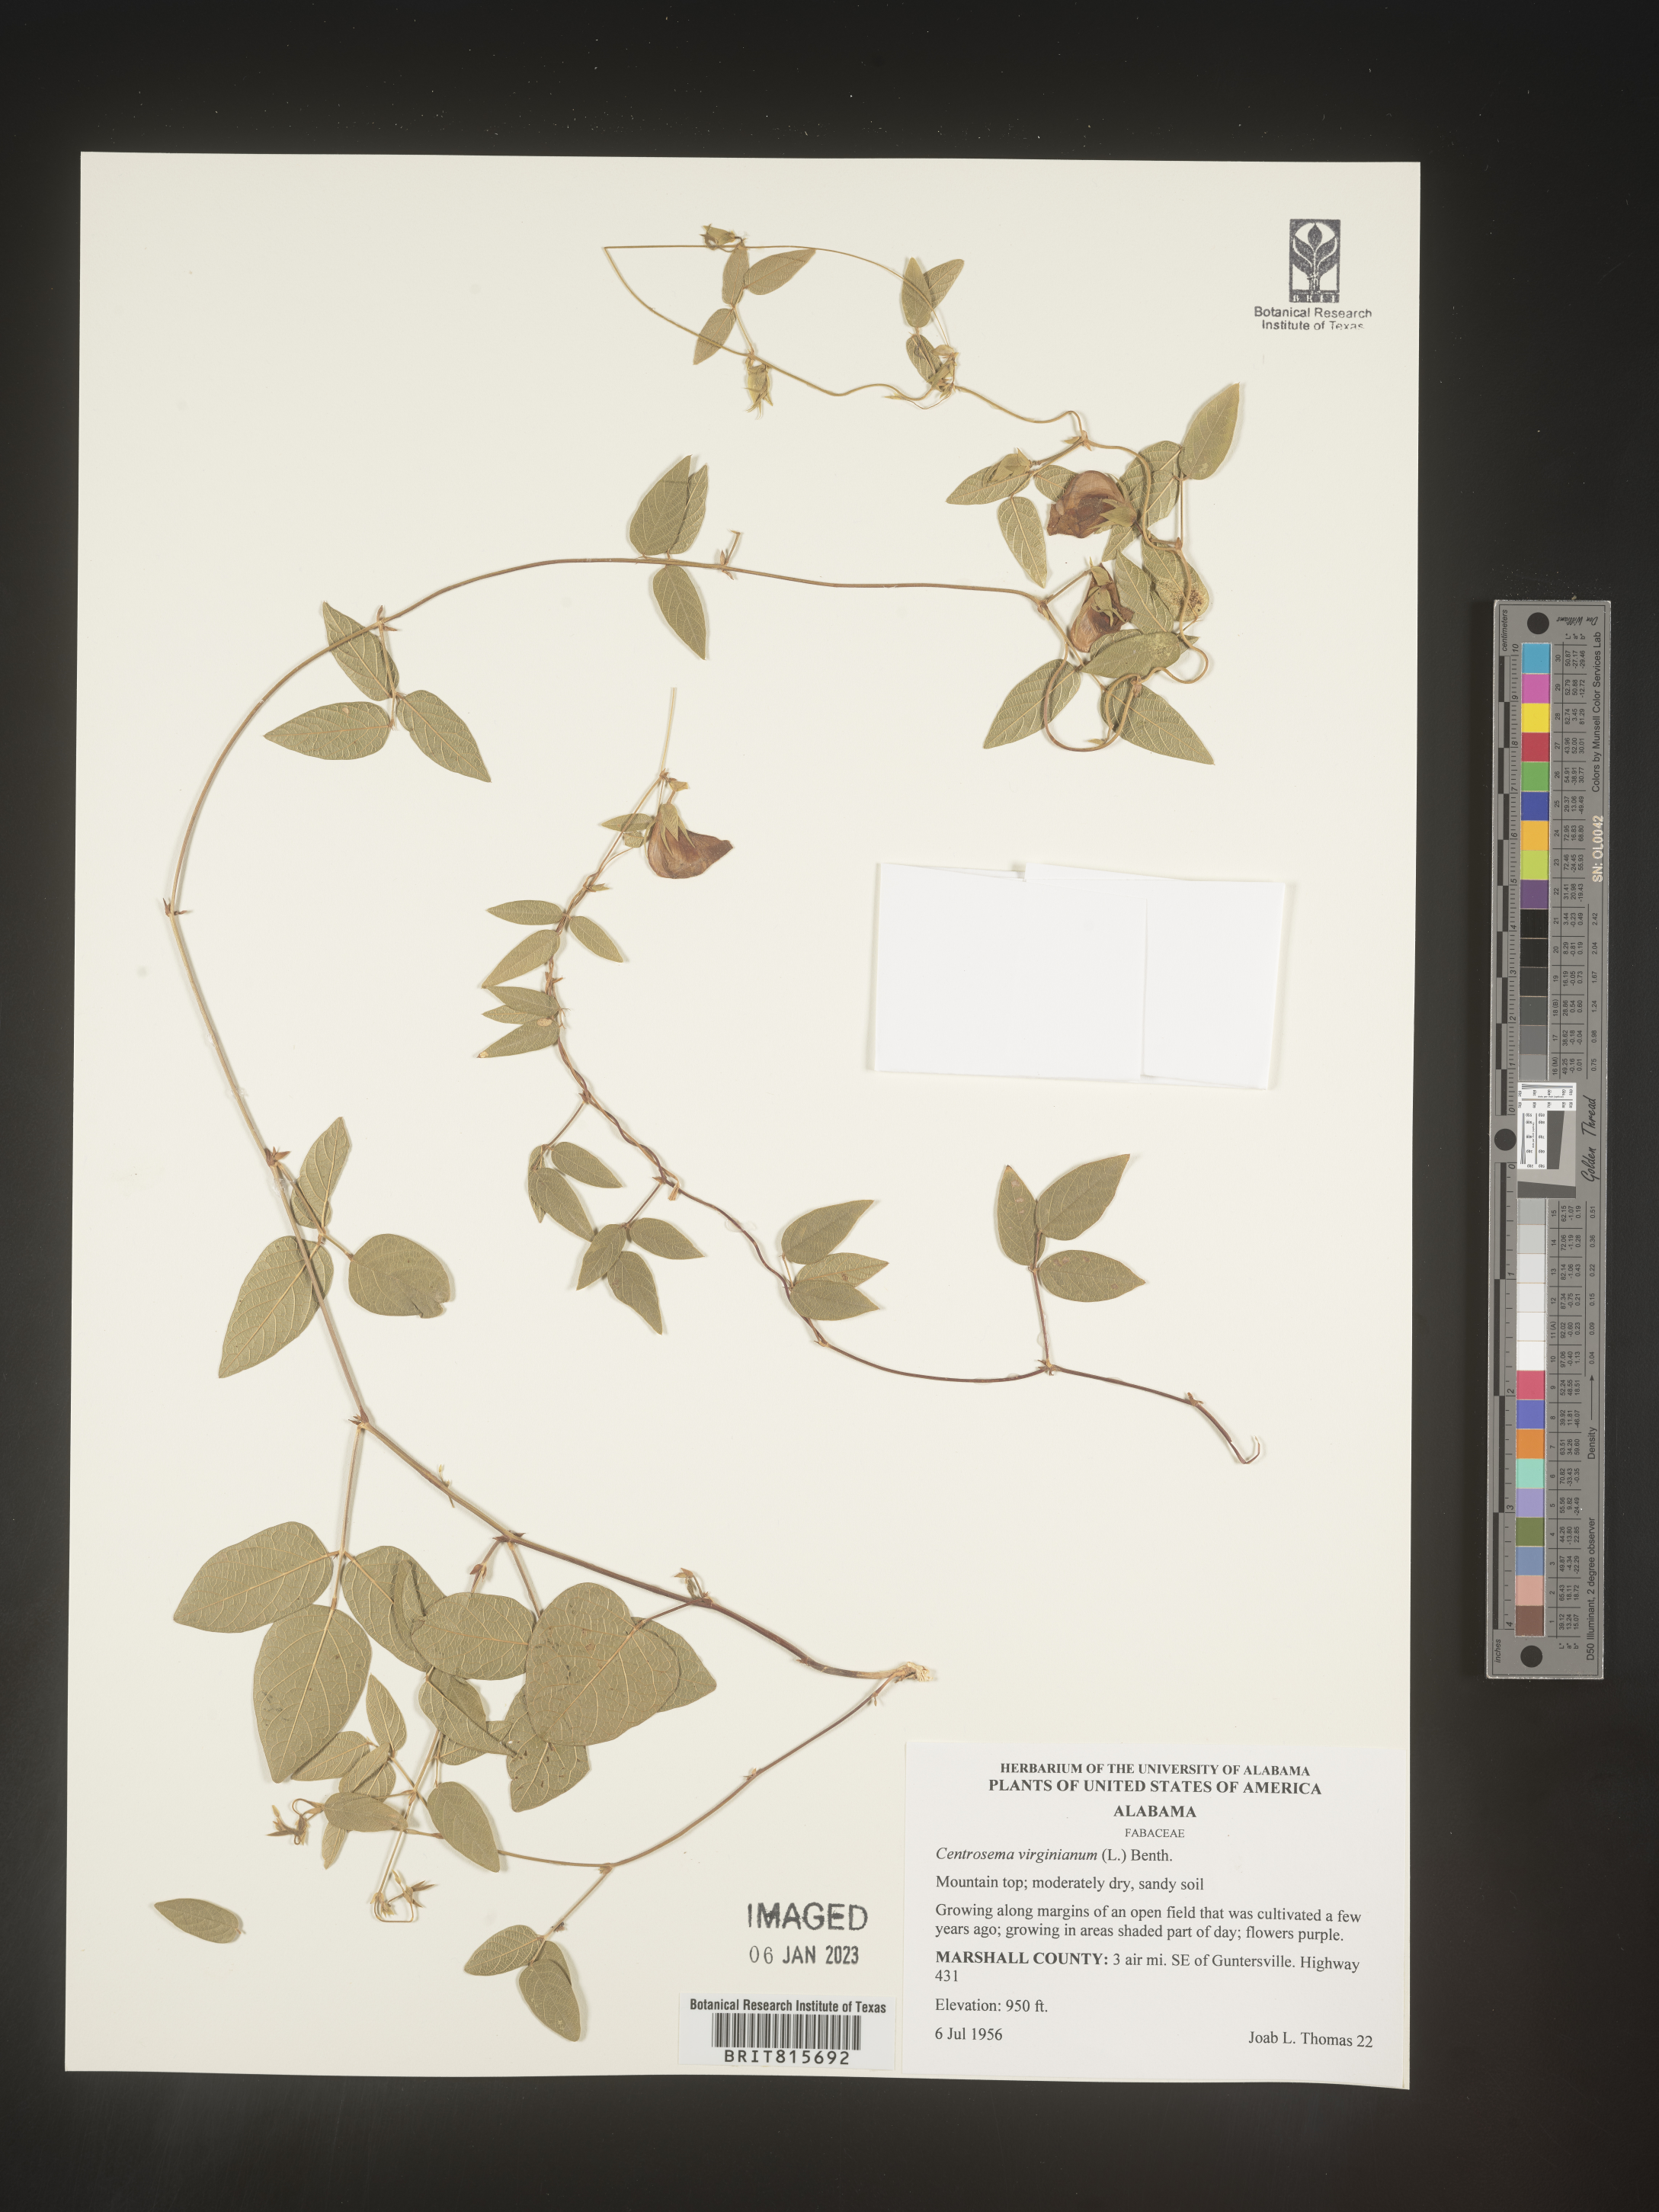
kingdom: Plantae
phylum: Tracheophyta
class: Magnoliopsida
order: Fabales
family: Fabaceae
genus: Centrosema
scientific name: Centrosema virginianum
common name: Butterfly-pea
